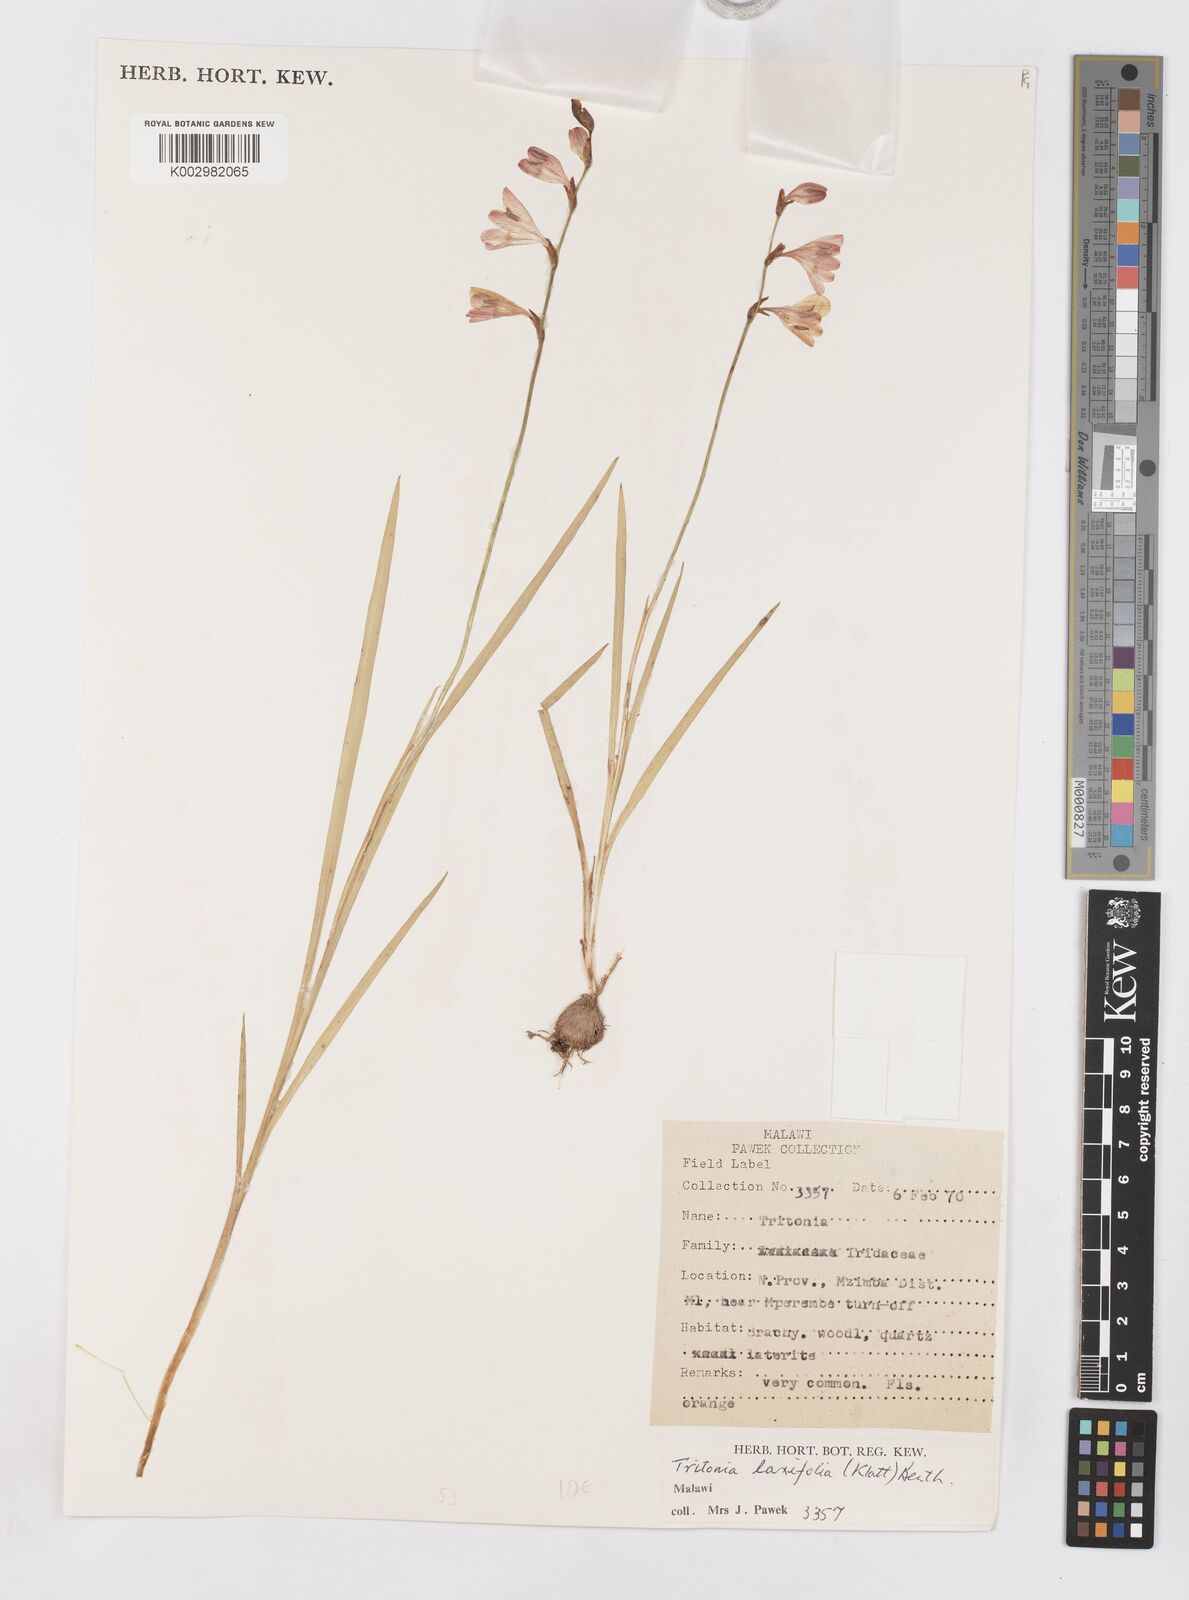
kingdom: Plantae
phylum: Tracheophyta
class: Liliopsida
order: Asparagales
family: Iridaceae
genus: Tritonia
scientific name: Tritonia laxifolia
